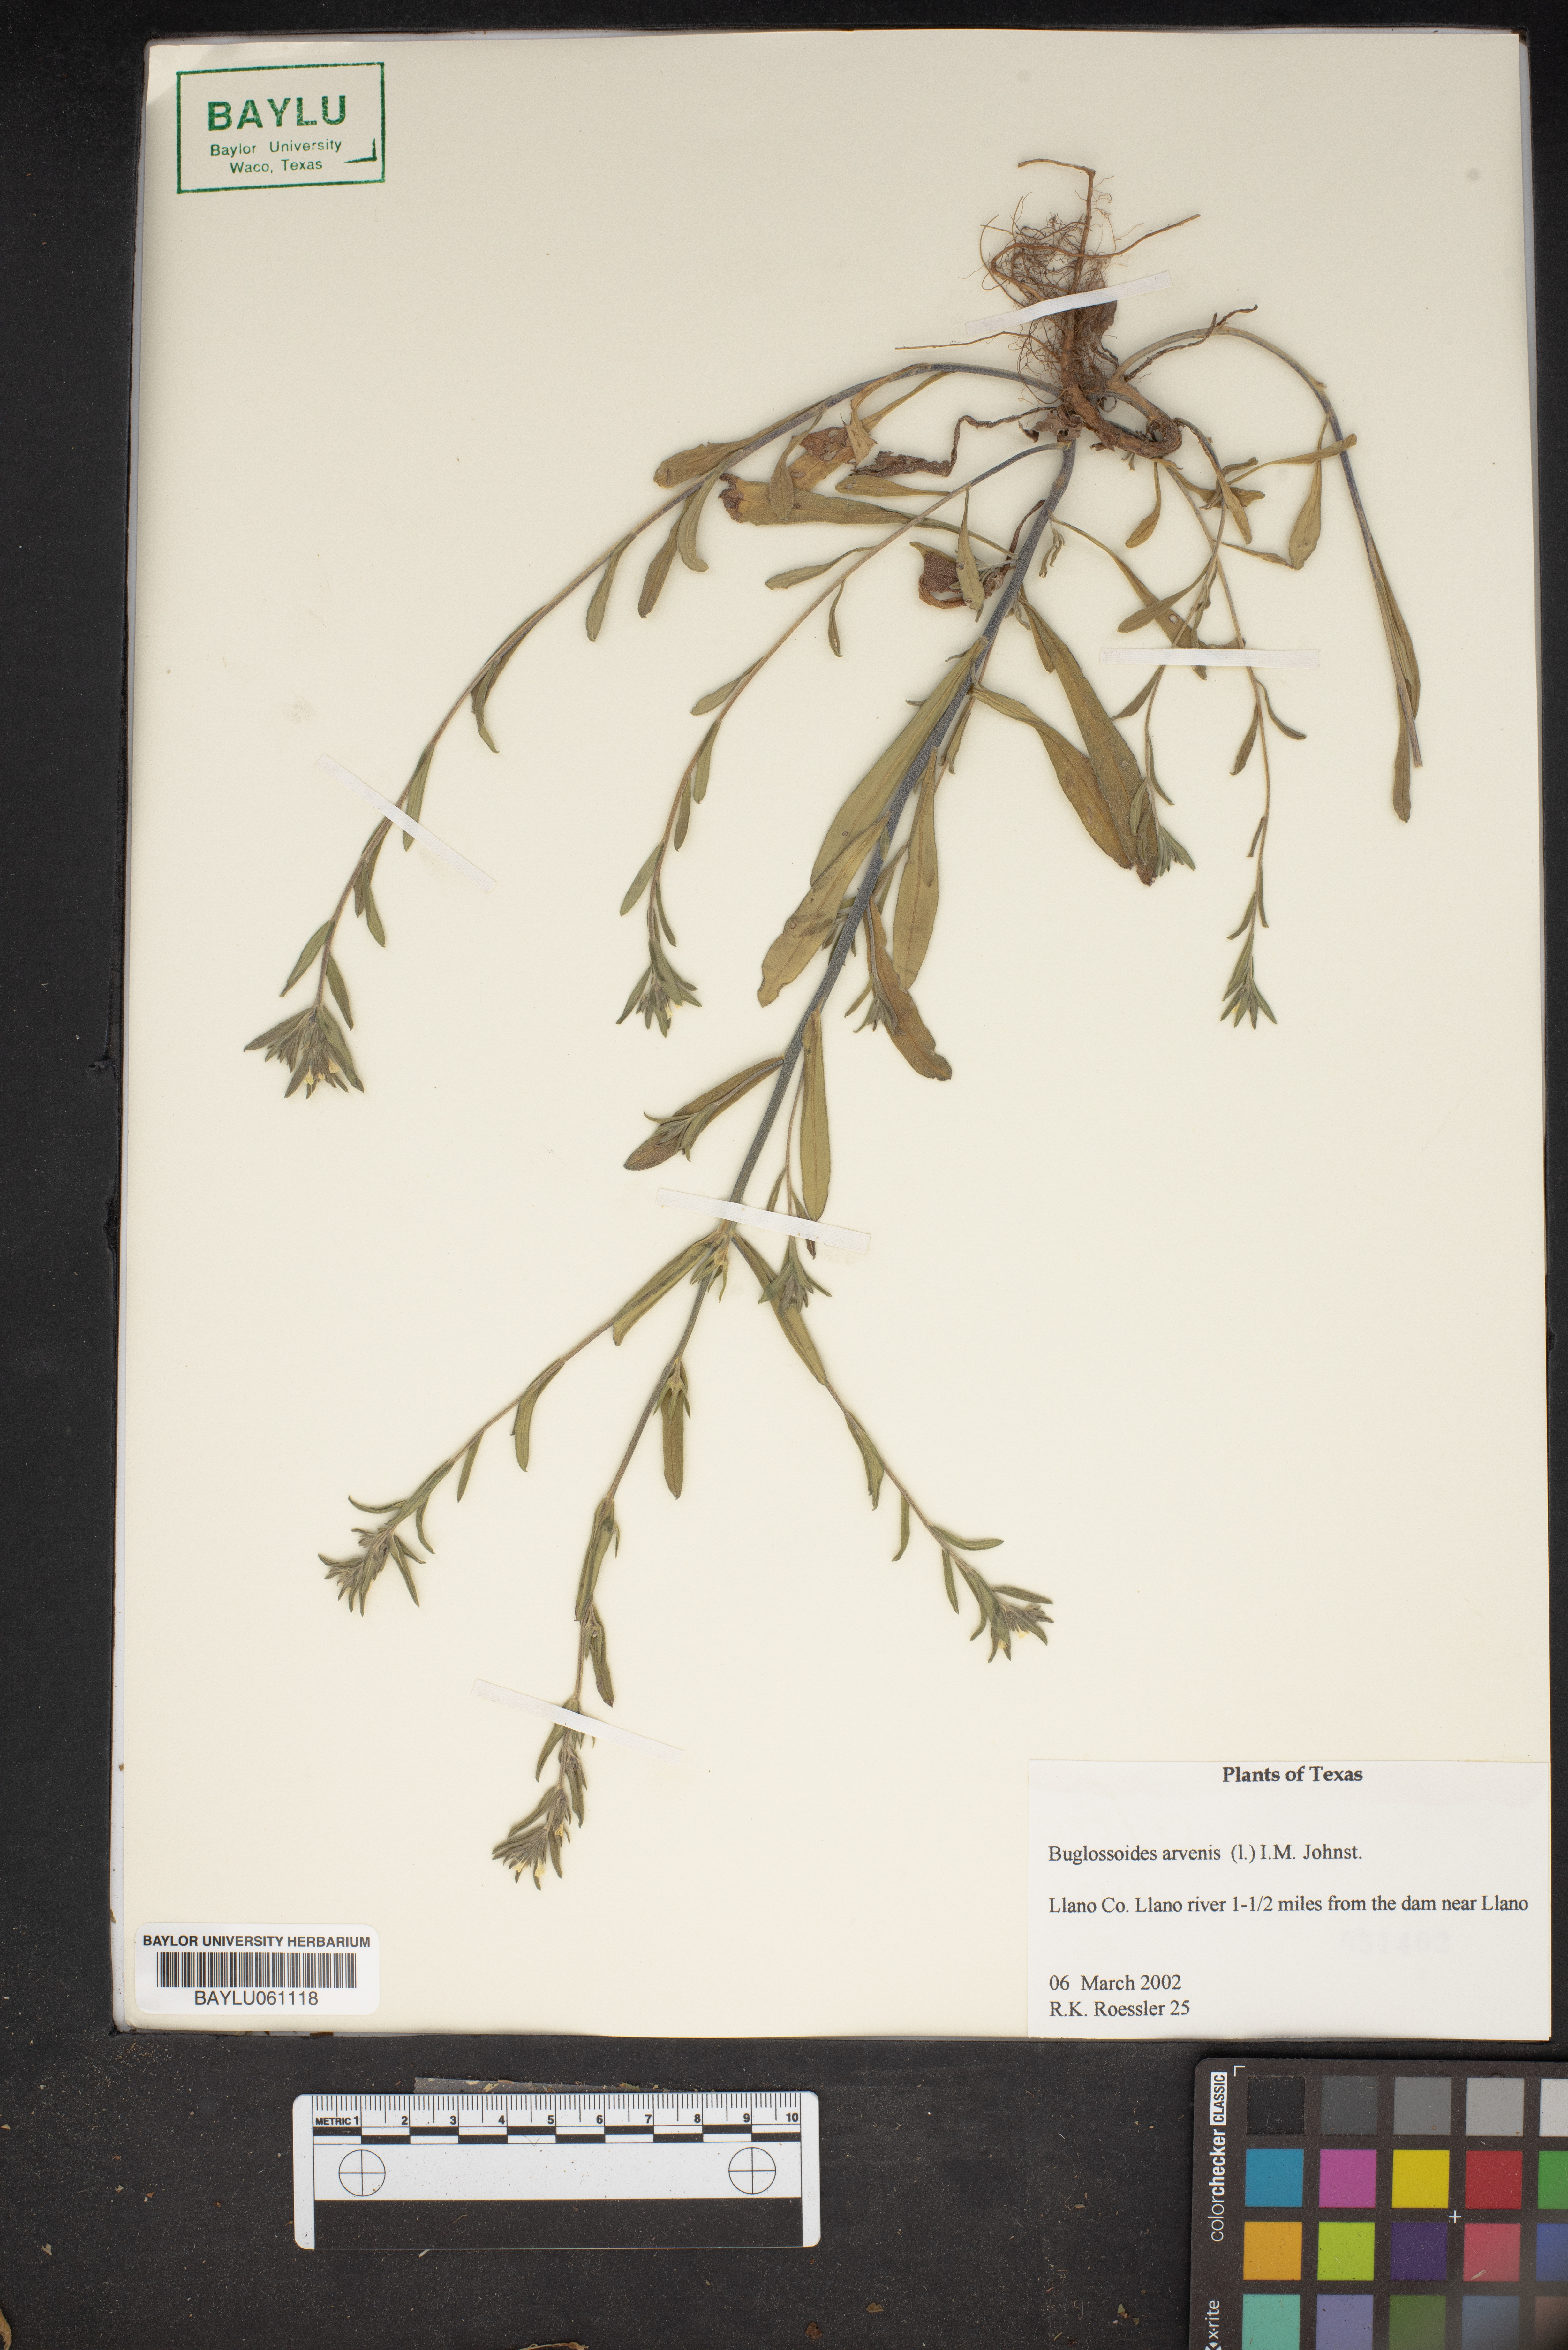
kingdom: Plantae
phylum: Tracheophyta
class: Magnoliopsida
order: Boraginales
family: Boraginaceae
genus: Buglossoides
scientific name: Buglossoides arvensis
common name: Corn gromwell
